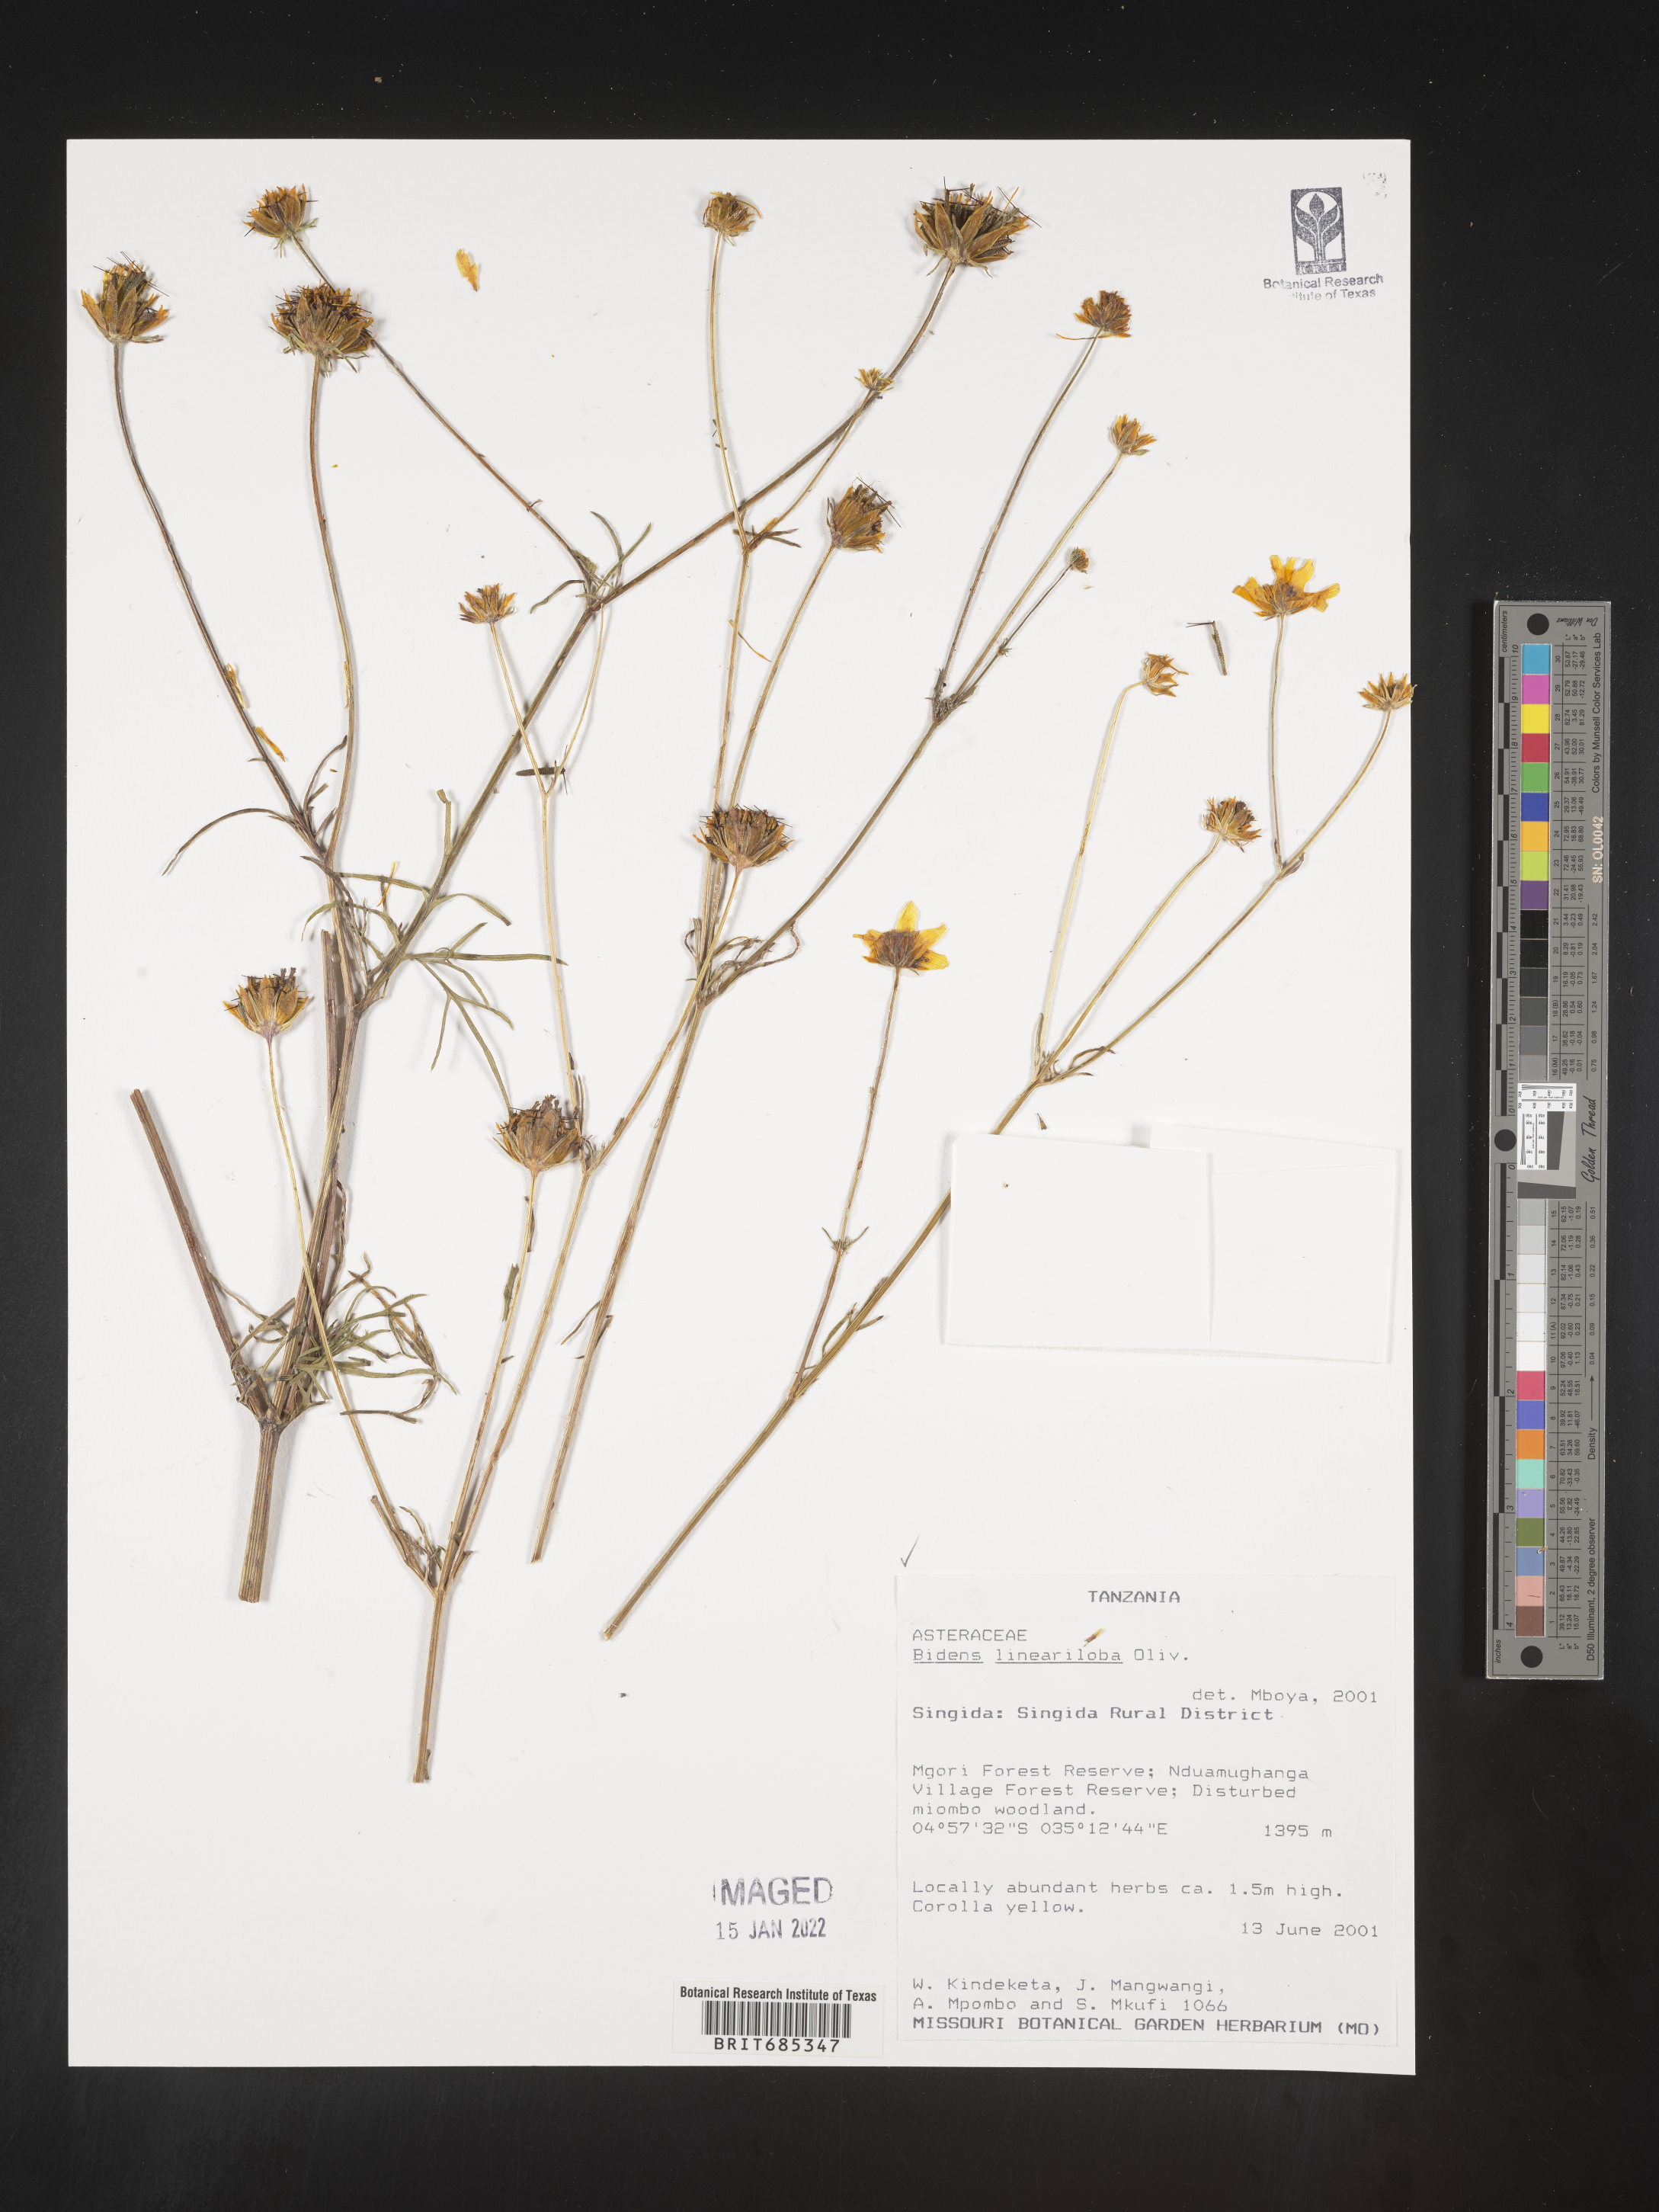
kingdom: Plantae
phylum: Tracheophyta
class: Magnoliopsida
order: Asterales
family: Asteraceae
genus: Bidens
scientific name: Bidens
